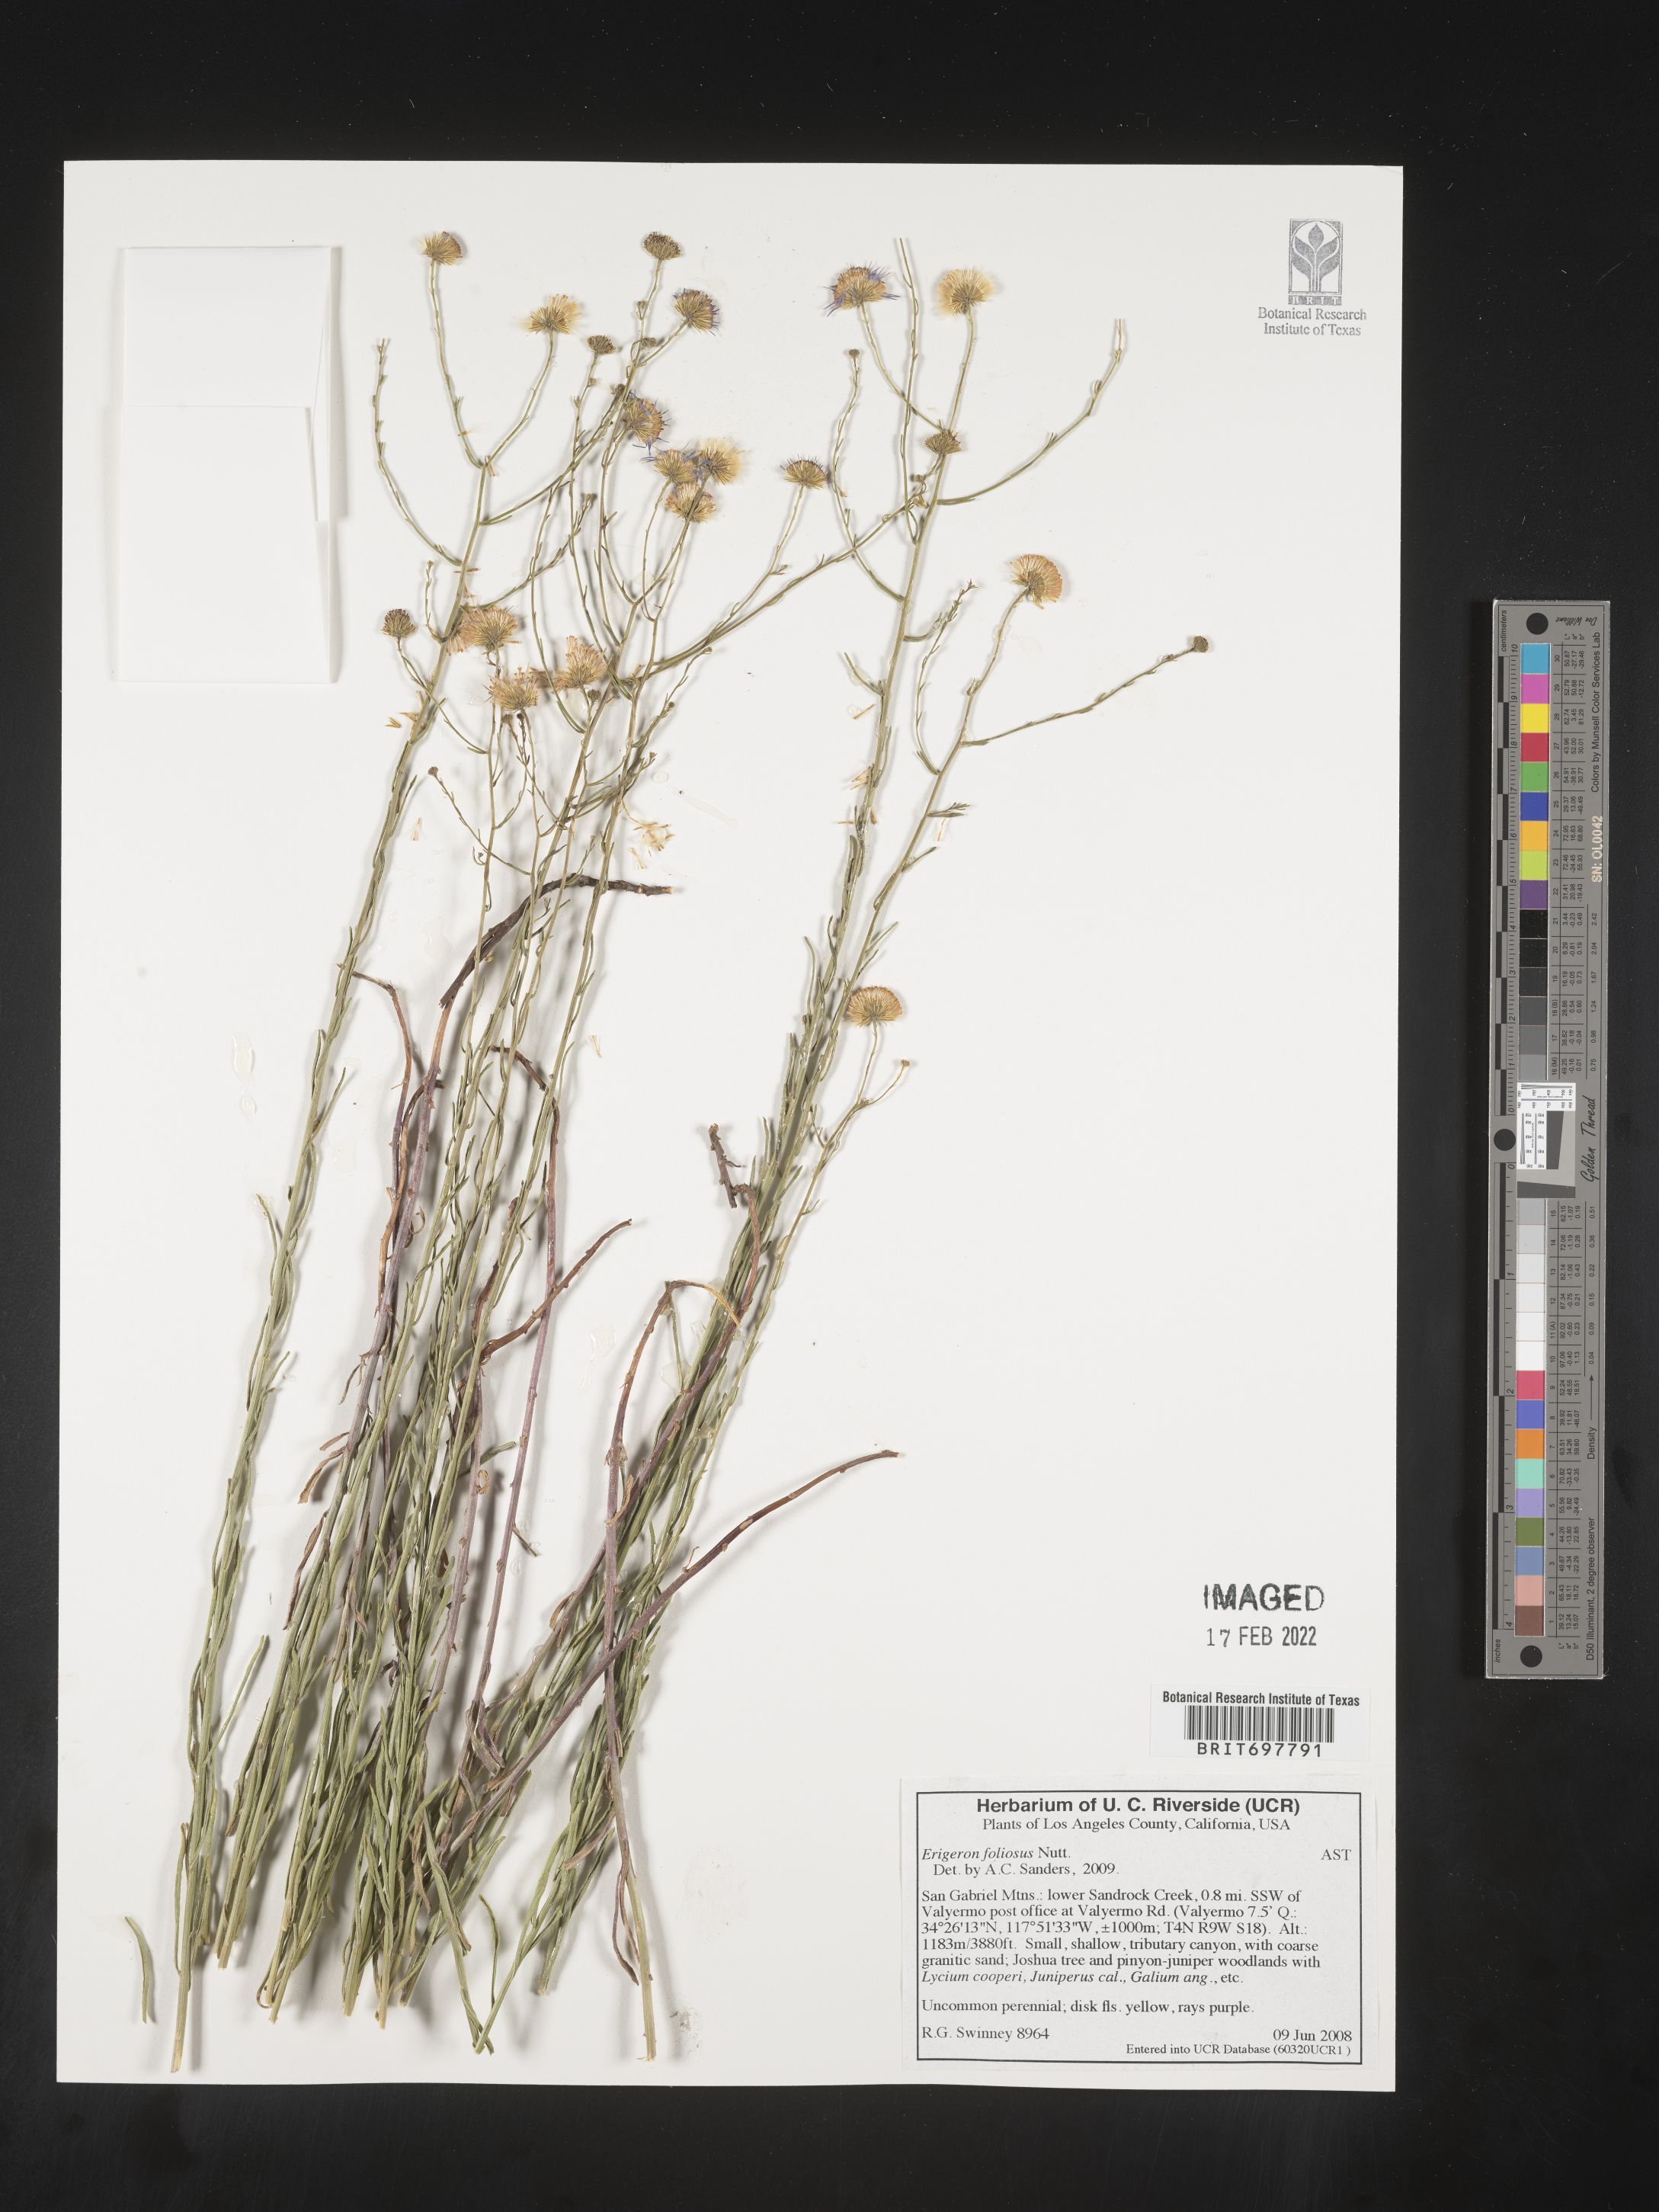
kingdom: Plantae
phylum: Tracheophyta
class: Magnoliopsida
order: Asterales
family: Asteraceae
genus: Erigeron
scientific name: Erigeron foliosus
